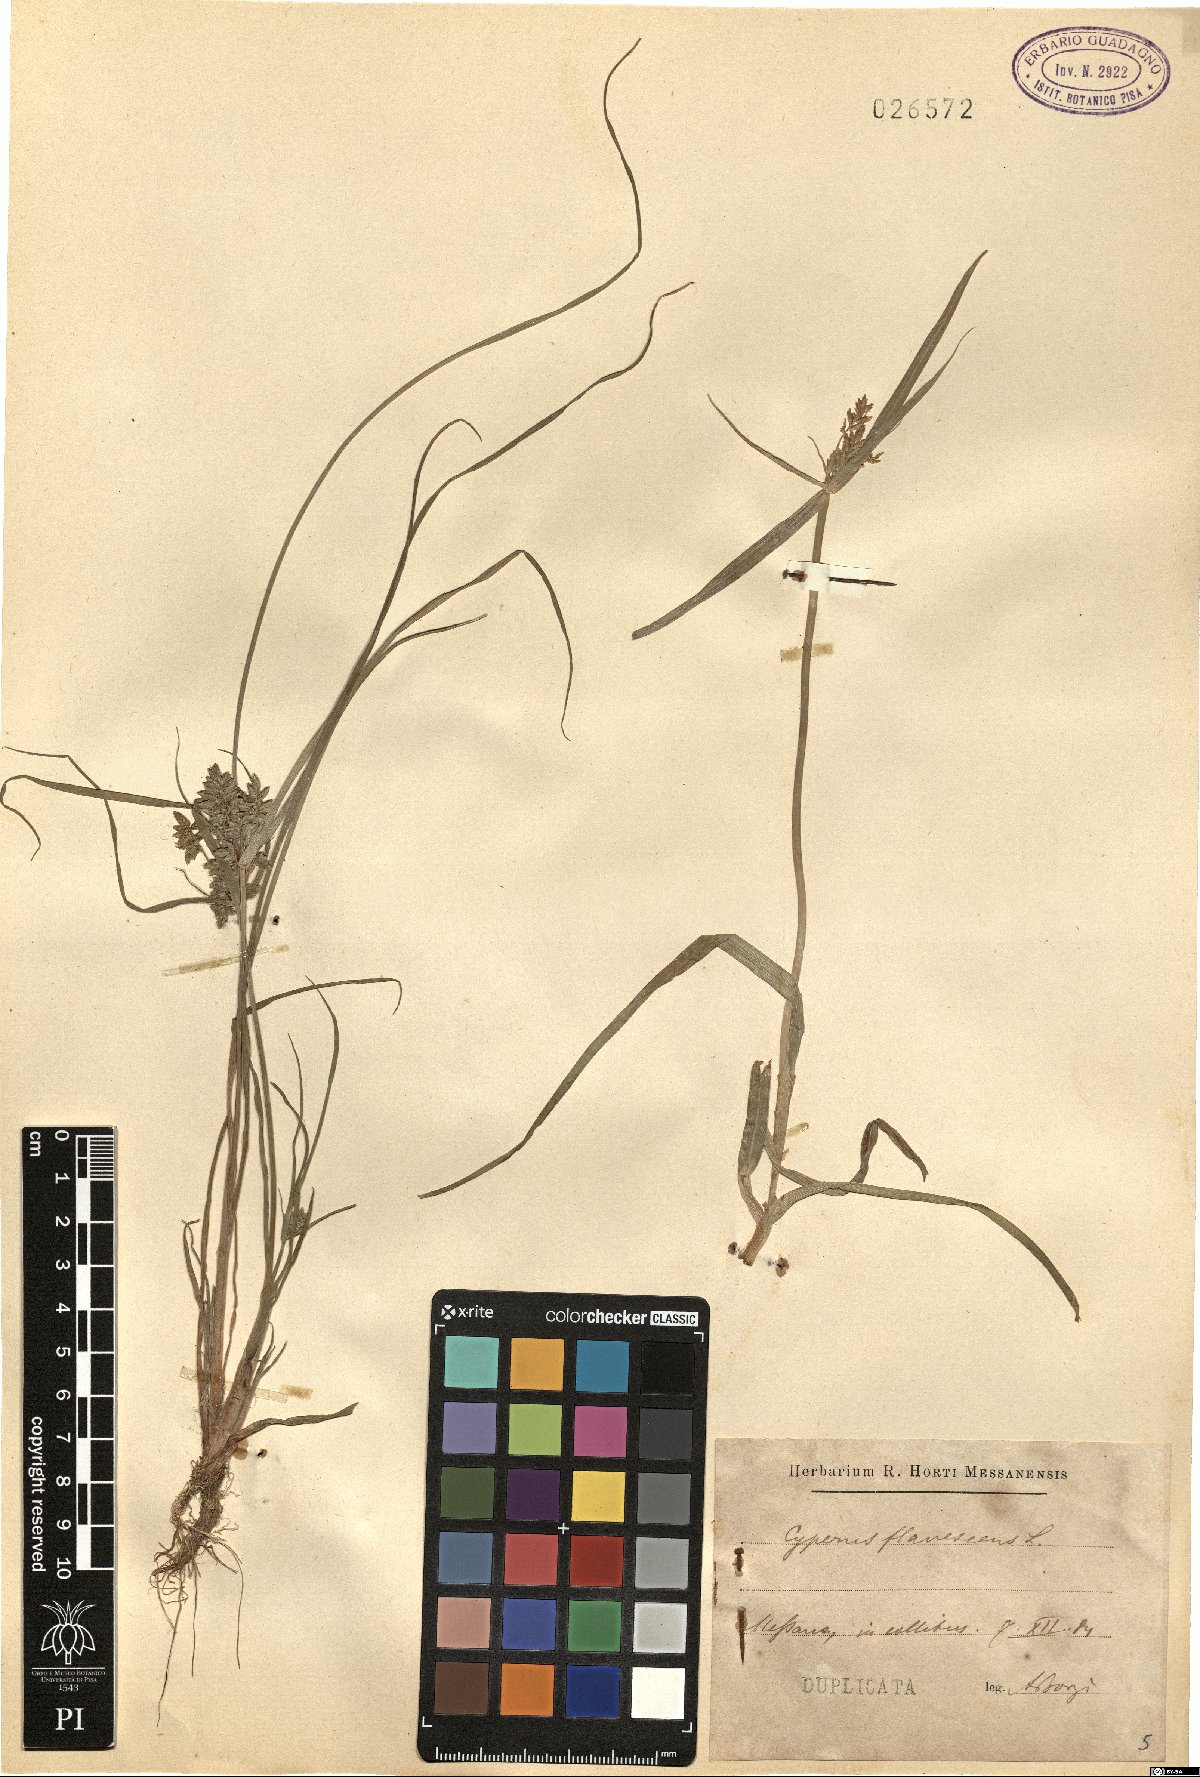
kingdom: Plantae
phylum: Tracheophyta
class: Liliopsida
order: Poales
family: Cyperaceae
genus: Cyperus
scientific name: Cyperus flavescens
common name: Yellow galingale
